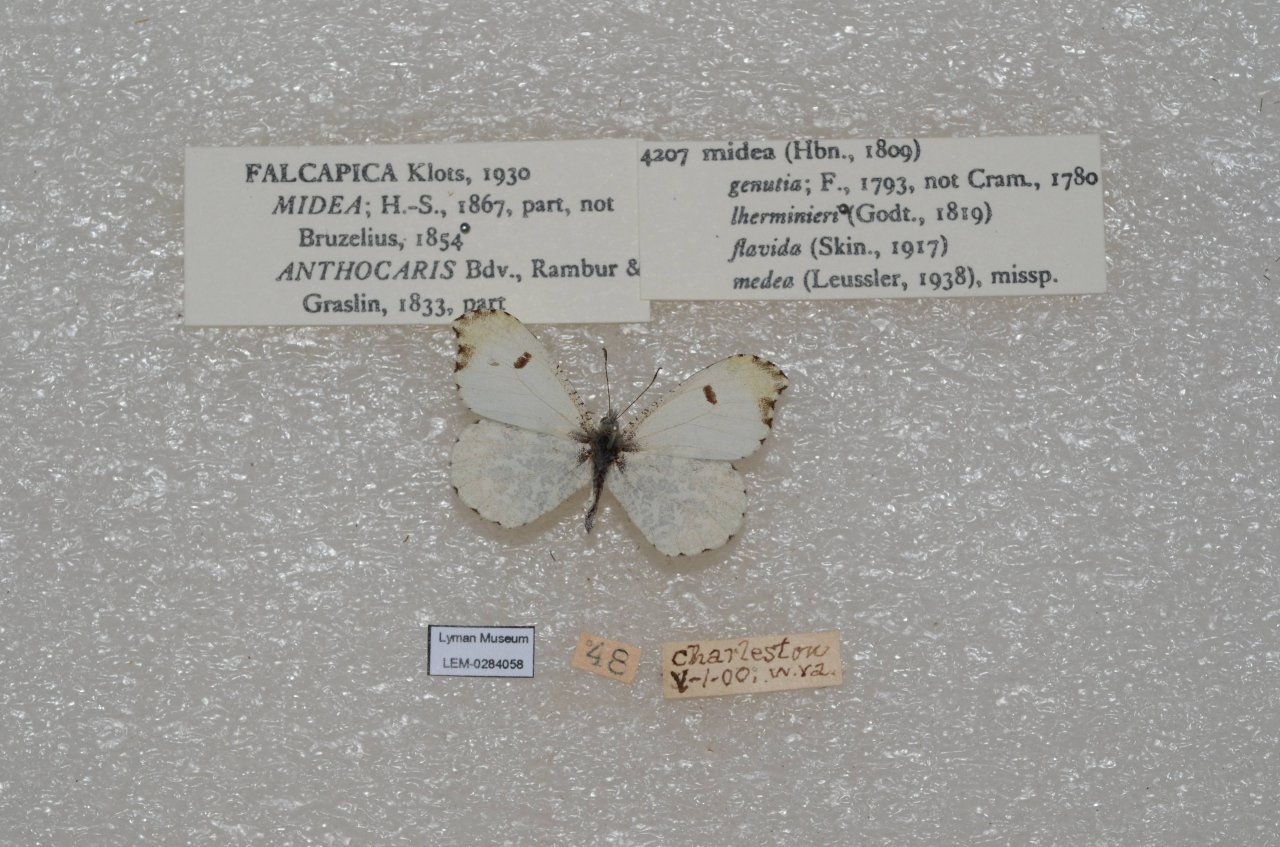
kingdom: Animalia
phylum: Arthropoda
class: Insecta
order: Lepidoptera
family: Pieridae
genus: Anthocharis
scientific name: Anthocharis midea
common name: Falcate Orangetip
